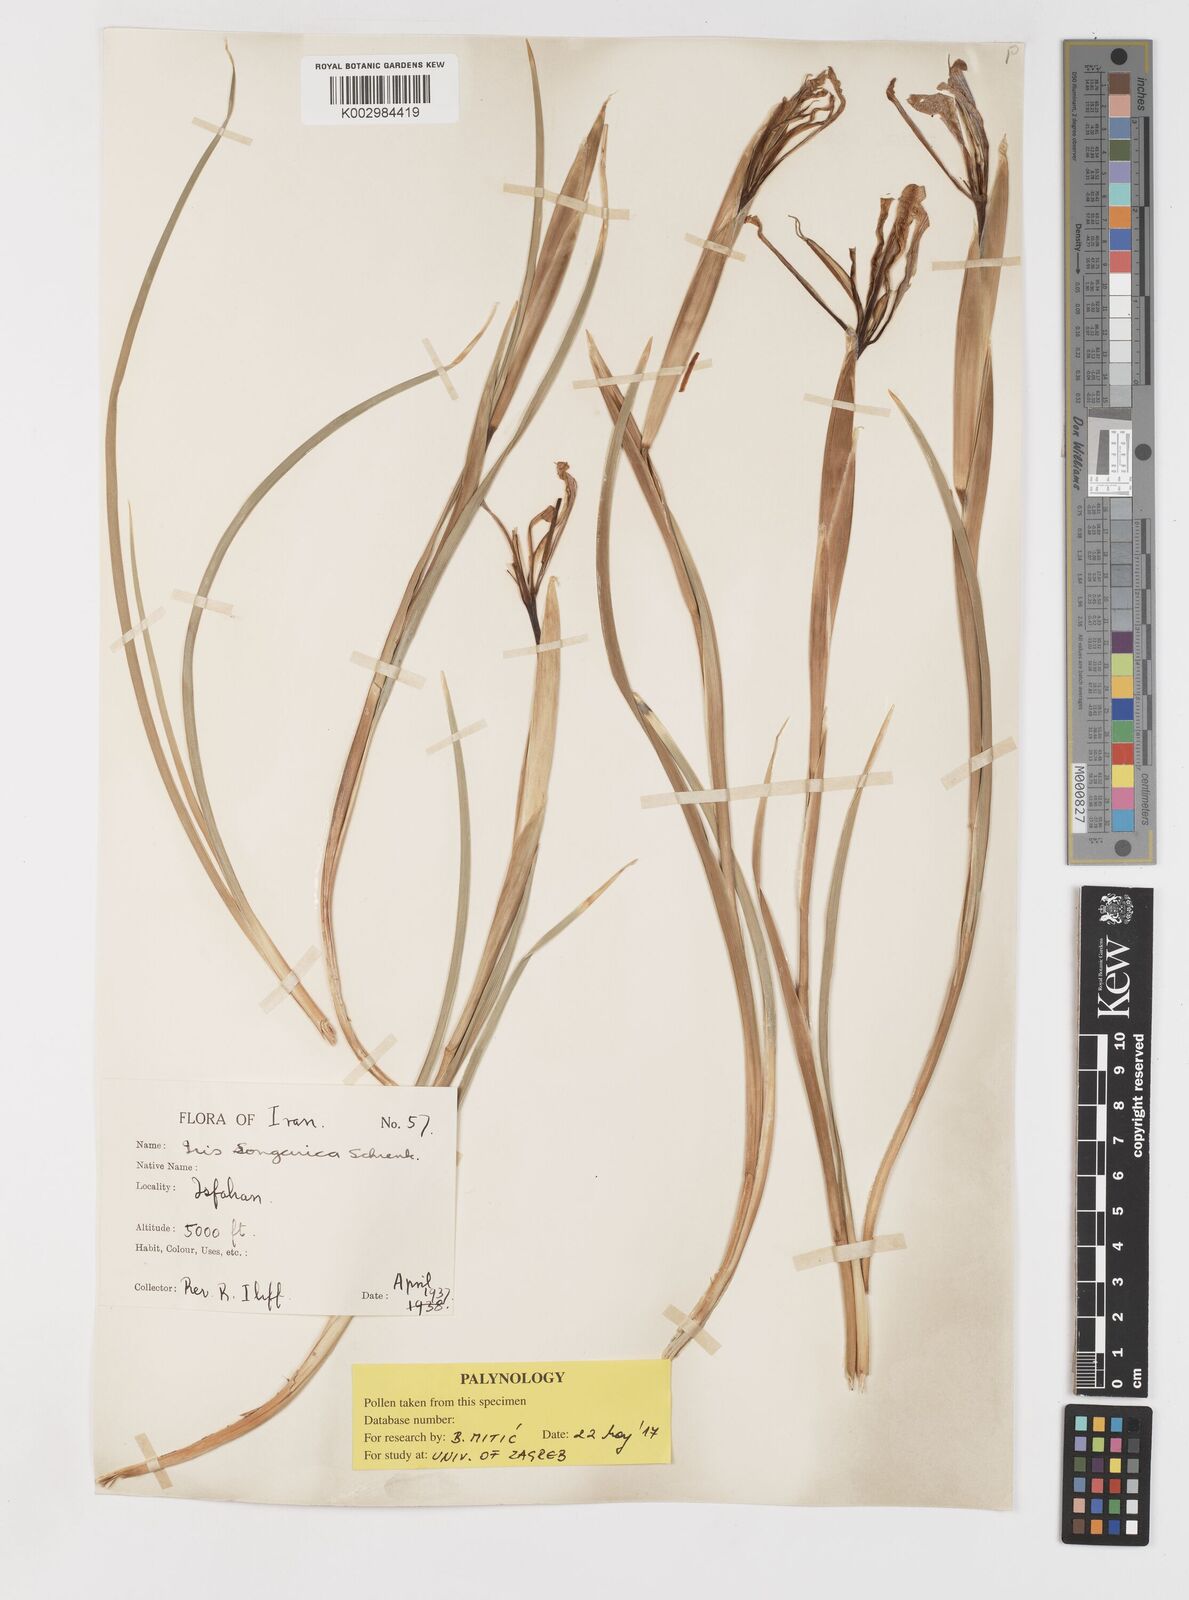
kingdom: Plantae
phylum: Tracheophyta
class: Liliopsida
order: Asparagales
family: Iridaceae
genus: Iris
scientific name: Iris songarica
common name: Songar iris
